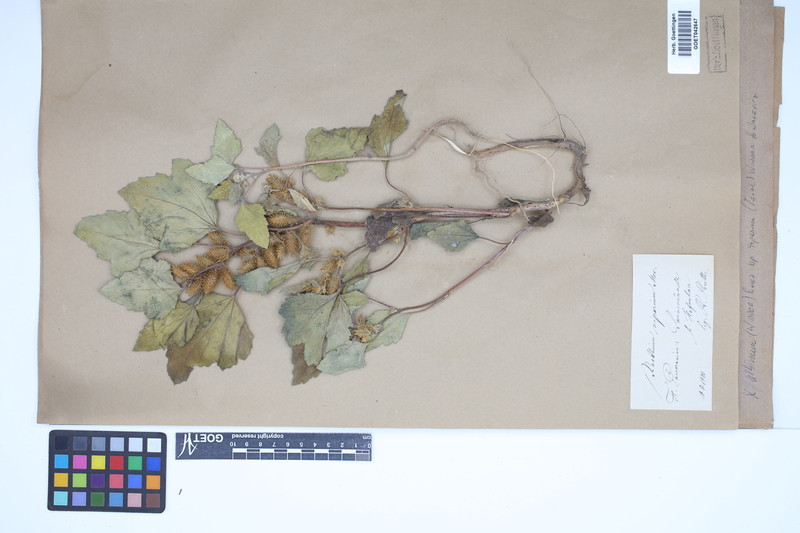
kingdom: Plantae
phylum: Tracheophyta
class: Magnoliopsida
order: Asterales
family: Asteraceae
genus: Xanthium
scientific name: Xanthium orientale
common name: Californian burr
